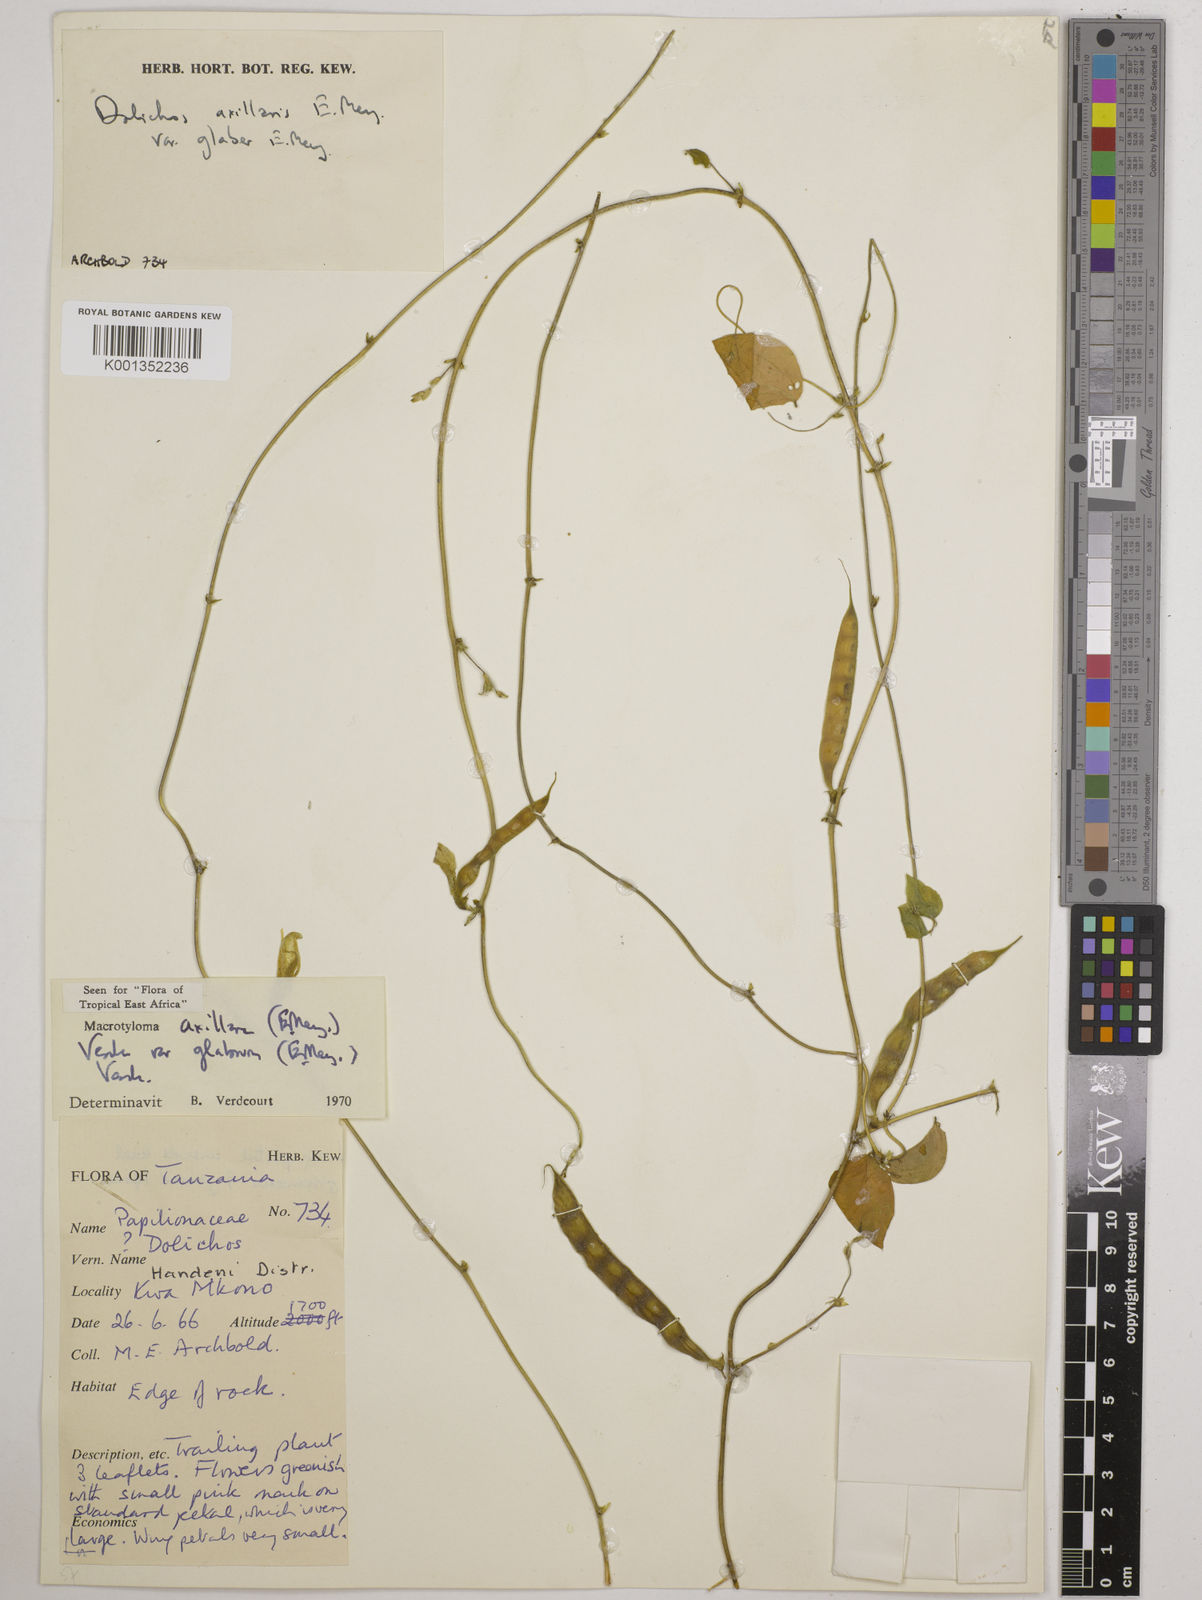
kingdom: Plantae
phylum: Tracheophyta
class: Magnoliopsida
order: Fabales
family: Fabaceae
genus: Macrotyloma
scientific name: Macrotyloma
